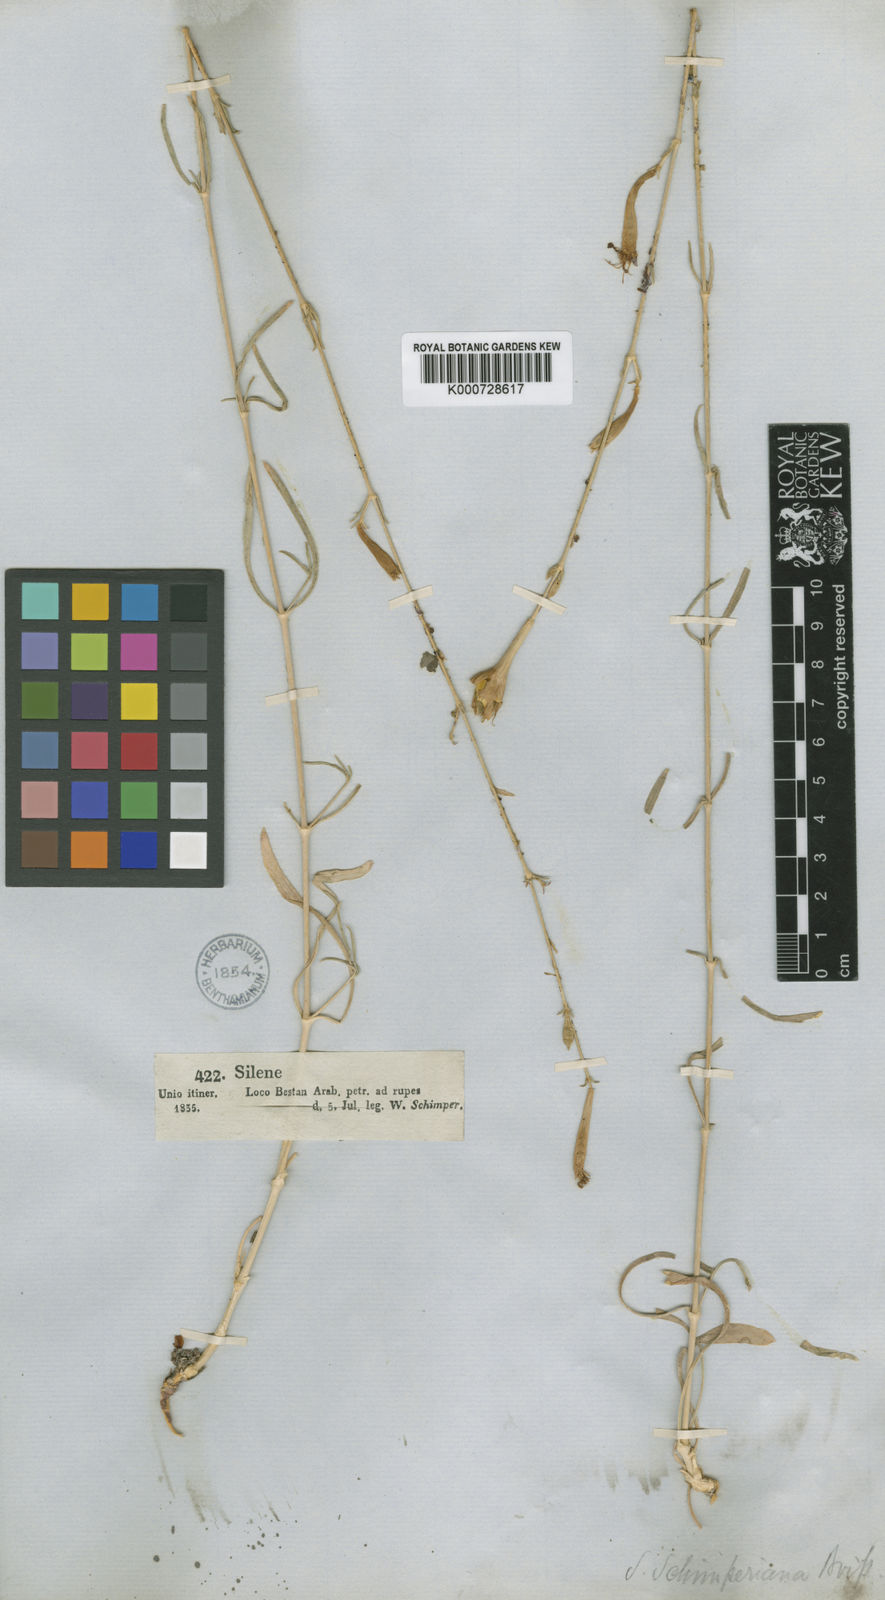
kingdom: Plantae
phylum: Tracheophyta
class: Magnoliopsida
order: Caryophyllales
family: Caryophyllaceae
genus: Silene
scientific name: Silene schimperiana
